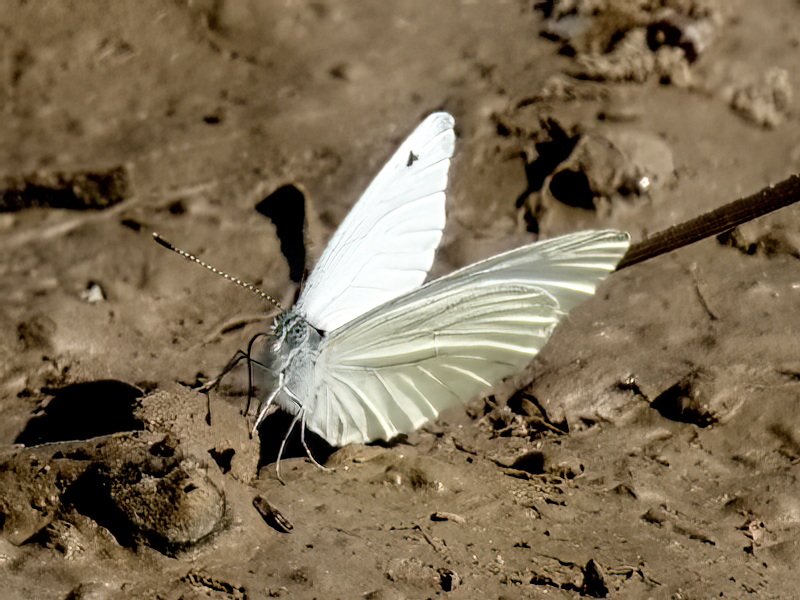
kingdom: Animalia
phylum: Arthropoda
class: Insecta
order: Lepidoptera
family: Pieridae
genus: Pieris
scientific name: Pieris oleracea
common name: Mustard White
